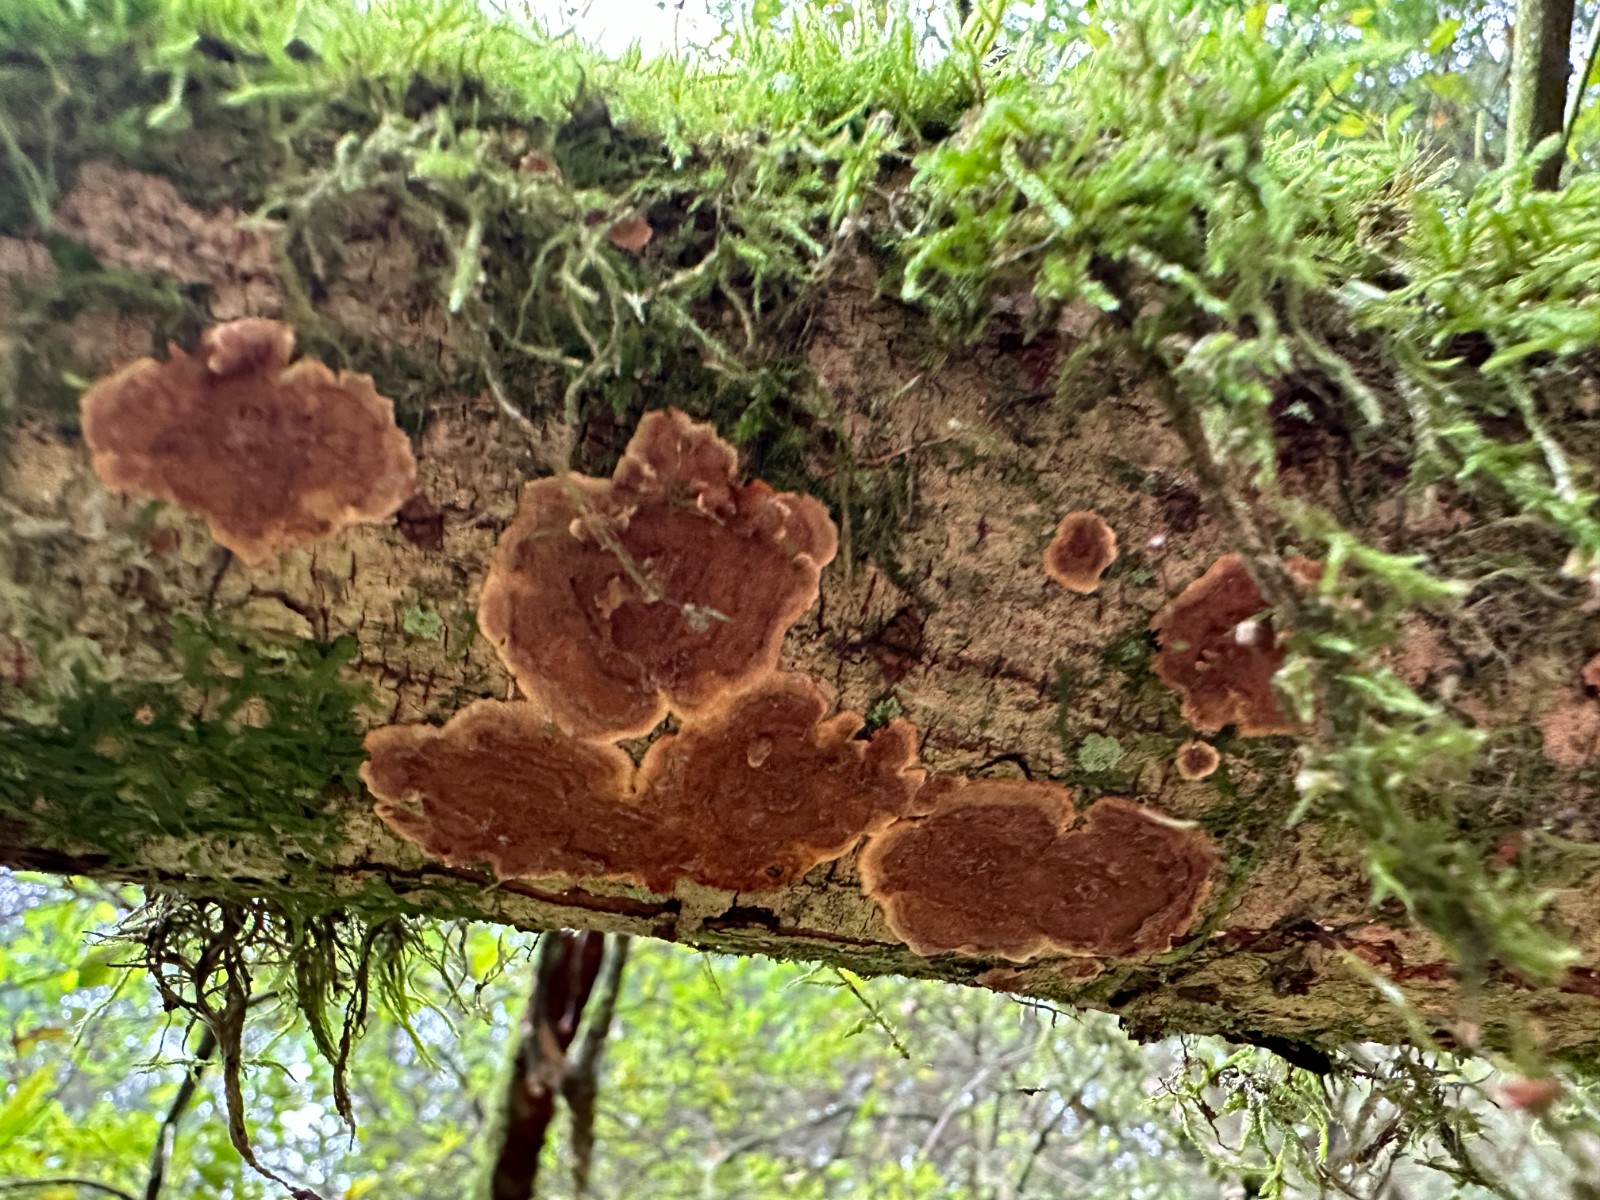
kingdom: Fungi
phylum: Basidiomycota
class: Agaricomycetes
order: Hymenochaetales
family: Hymenochaetaceae
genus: Hydnoporia
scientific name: Hydnoporia tabacina
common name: tobaksbrun ruslædersvamp
